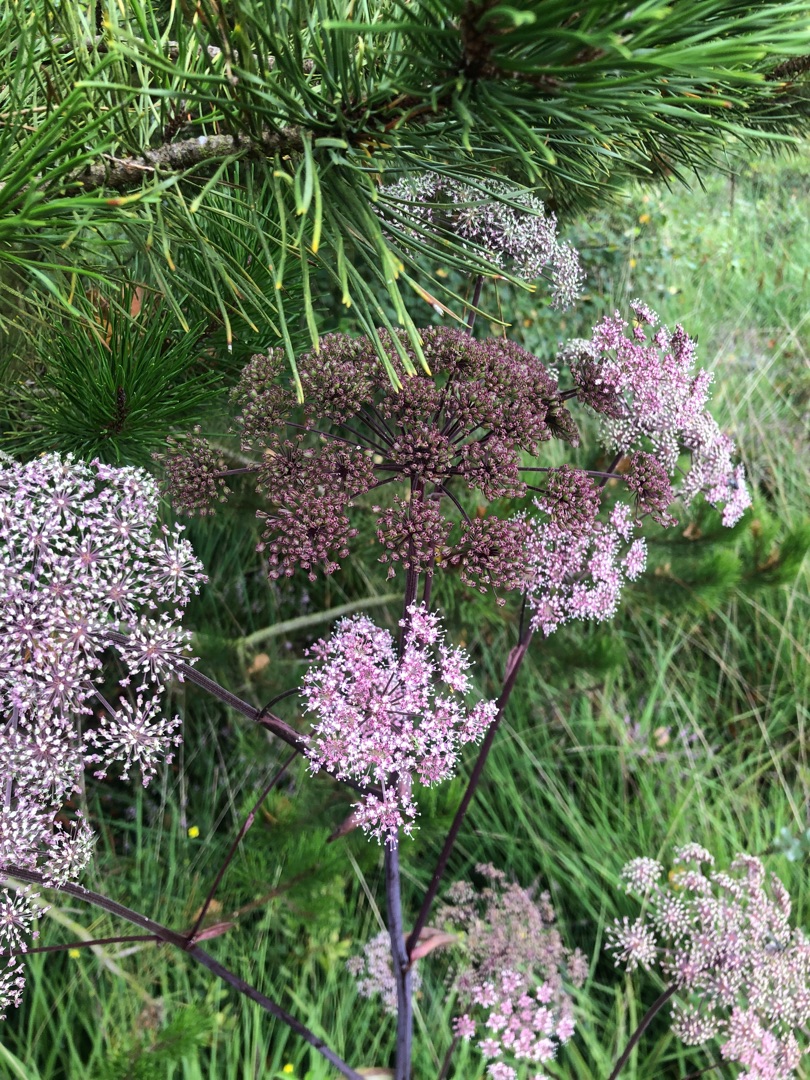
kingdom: Plantae
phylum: Tracheophyta
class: Magnoliopsida
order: Apiales
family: Apiaceae
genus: Angelica
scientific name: Angelica sylvestris
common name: Angelik
